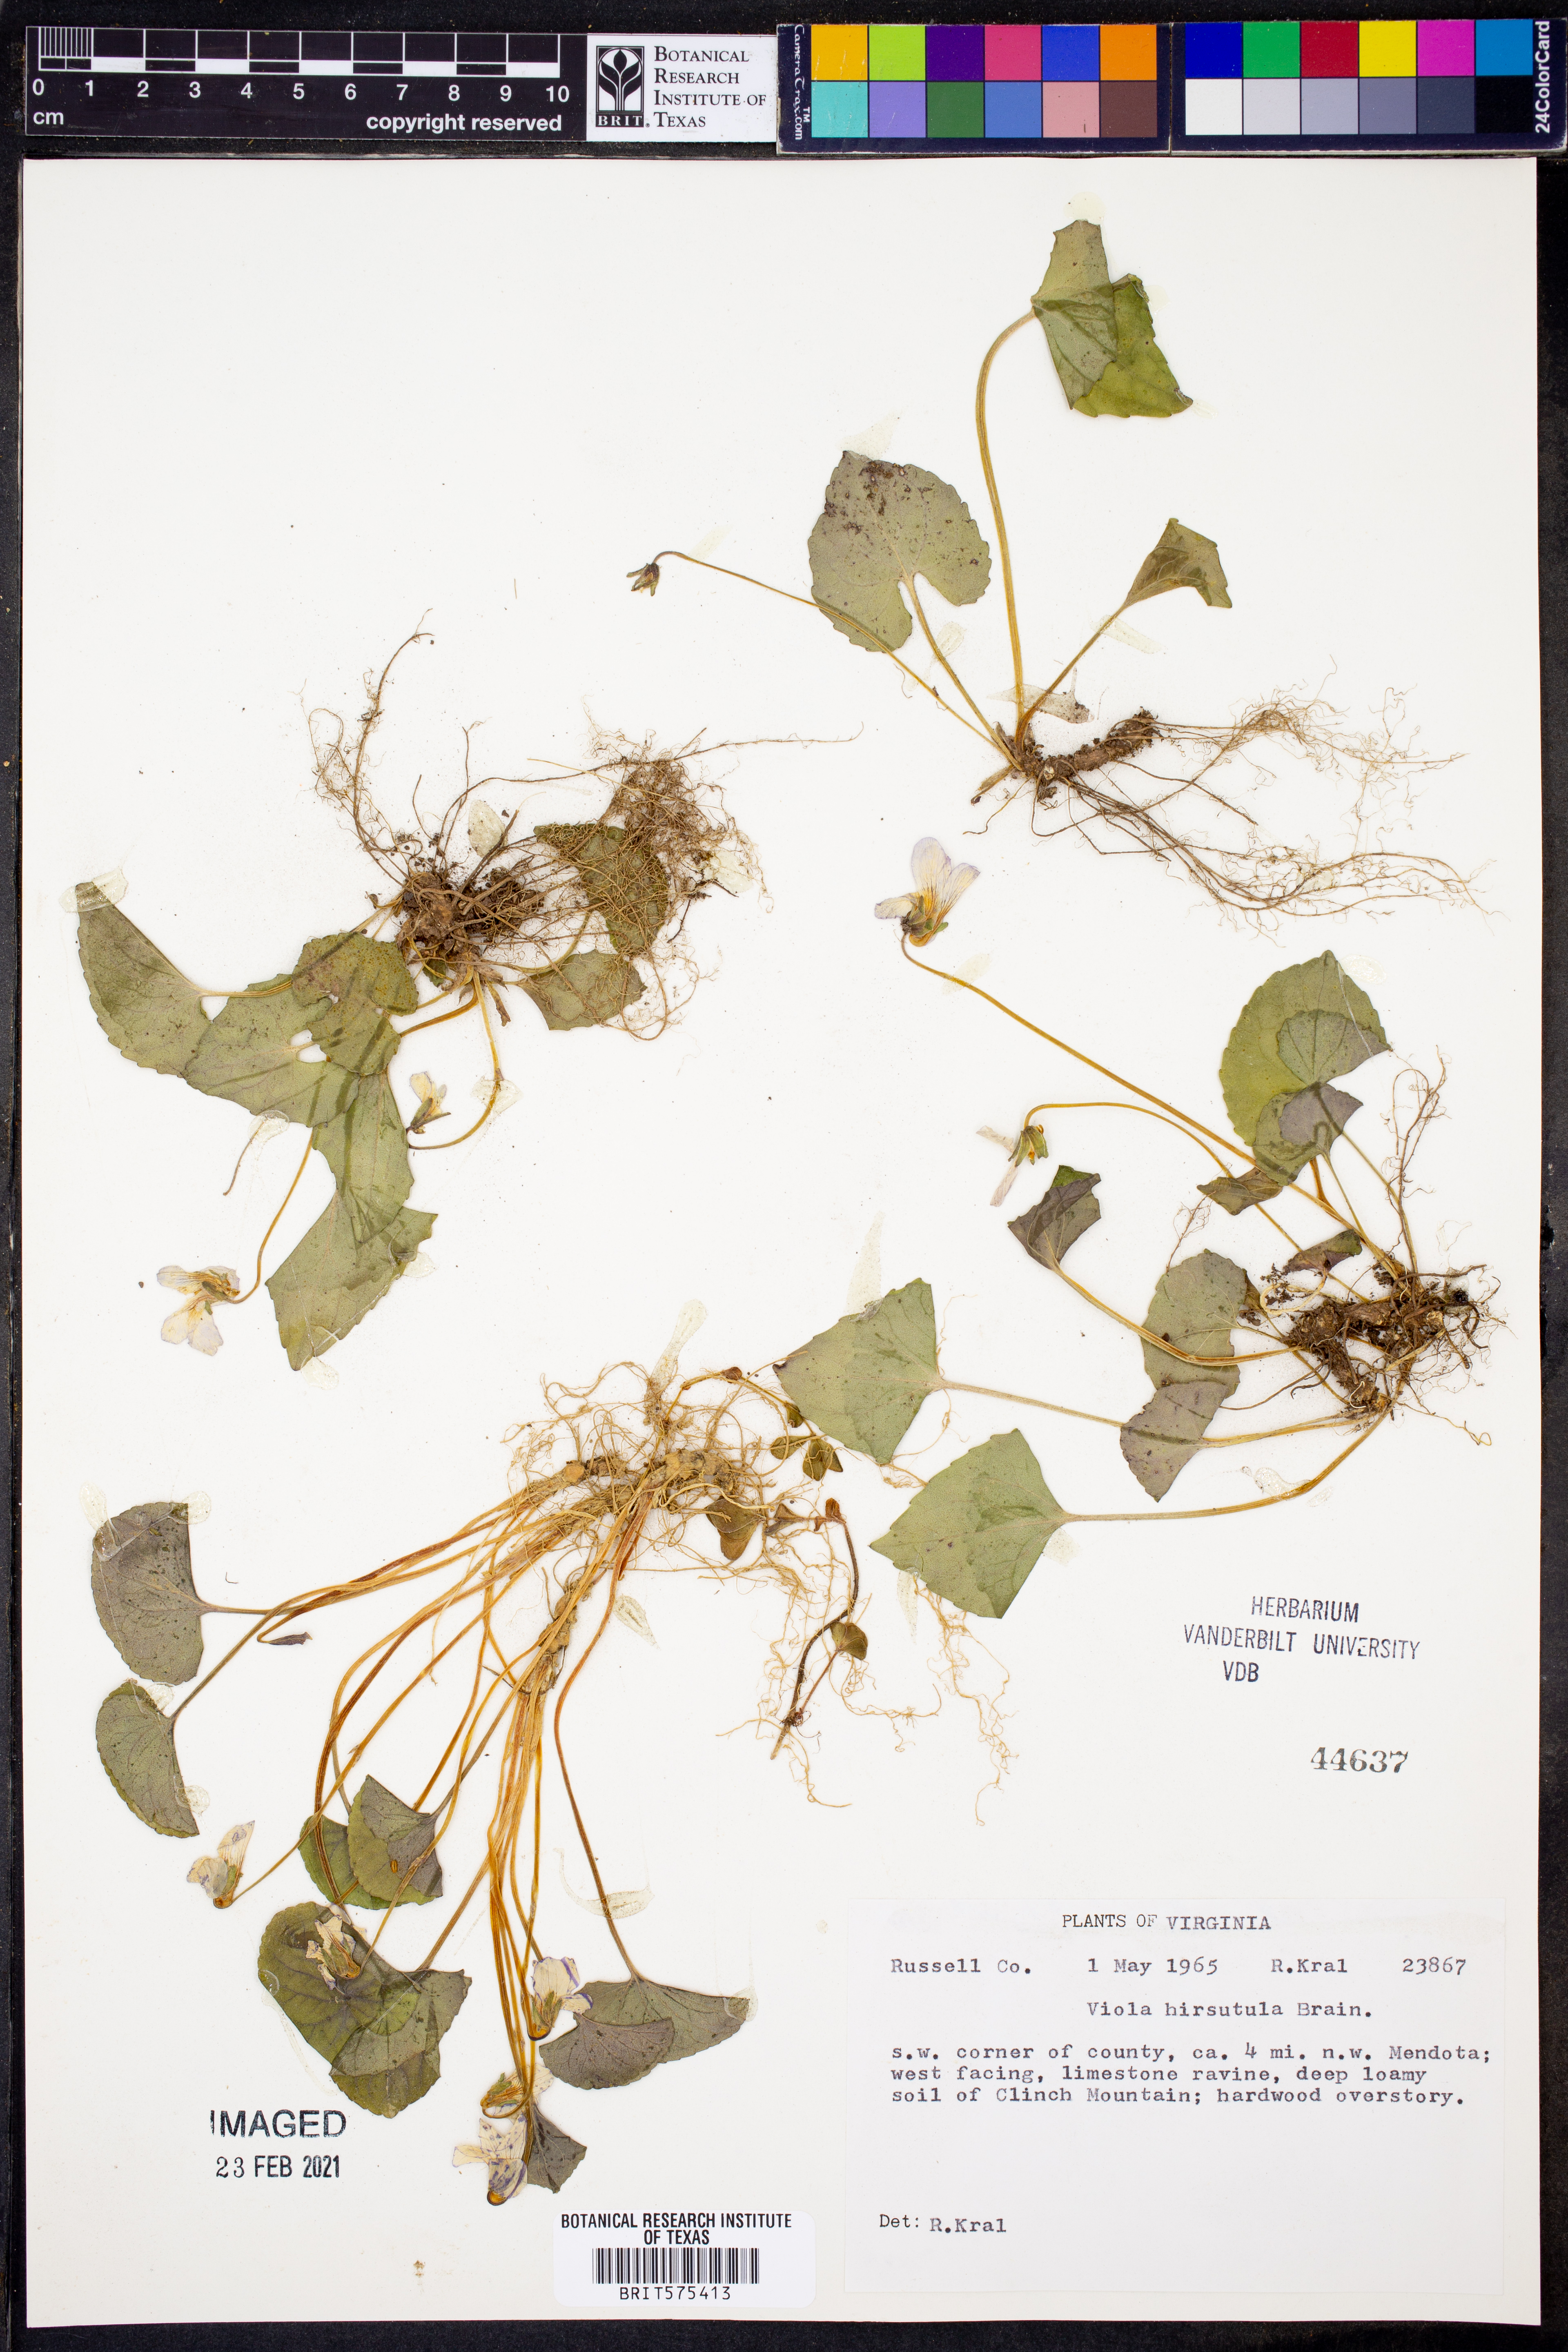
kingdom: Plantae
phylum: Tracheophyta
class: Magnoliopsida
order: Malpighiales
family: Violaceae
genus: Viola
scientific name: Viola hirsutula
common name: Southern wood violet
